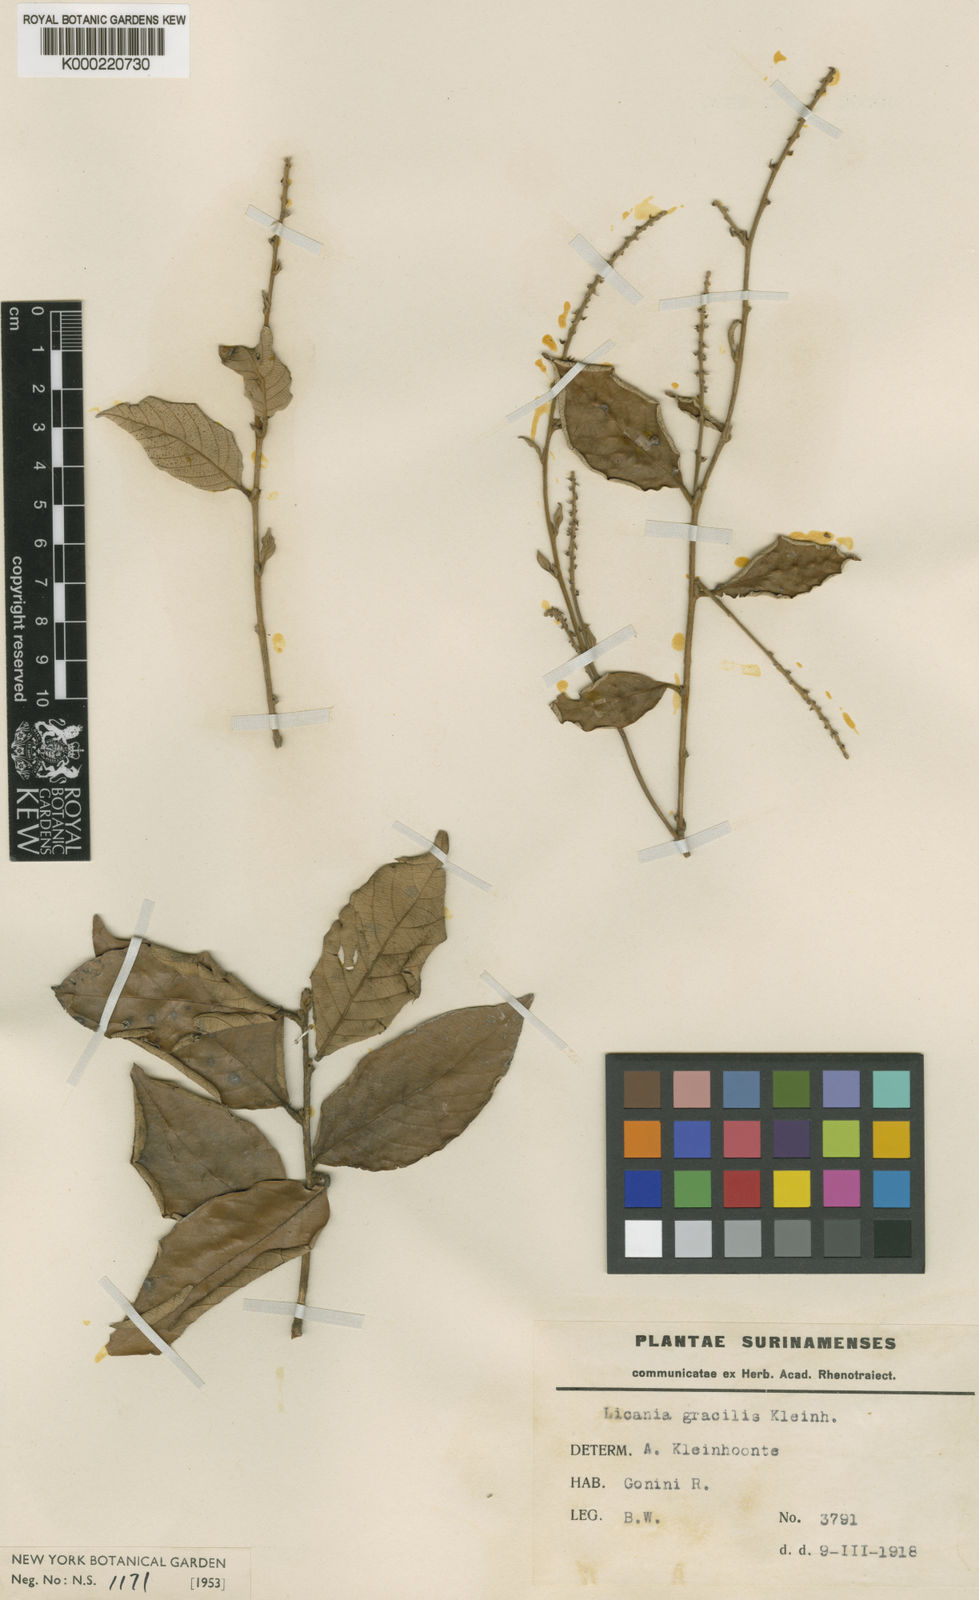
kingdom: Plantae
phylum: Tracheophyta
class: Magnoliopsida
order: Malpighiales
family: Chrysobalanaceae
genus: Licania
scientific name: Licania laxiflora
